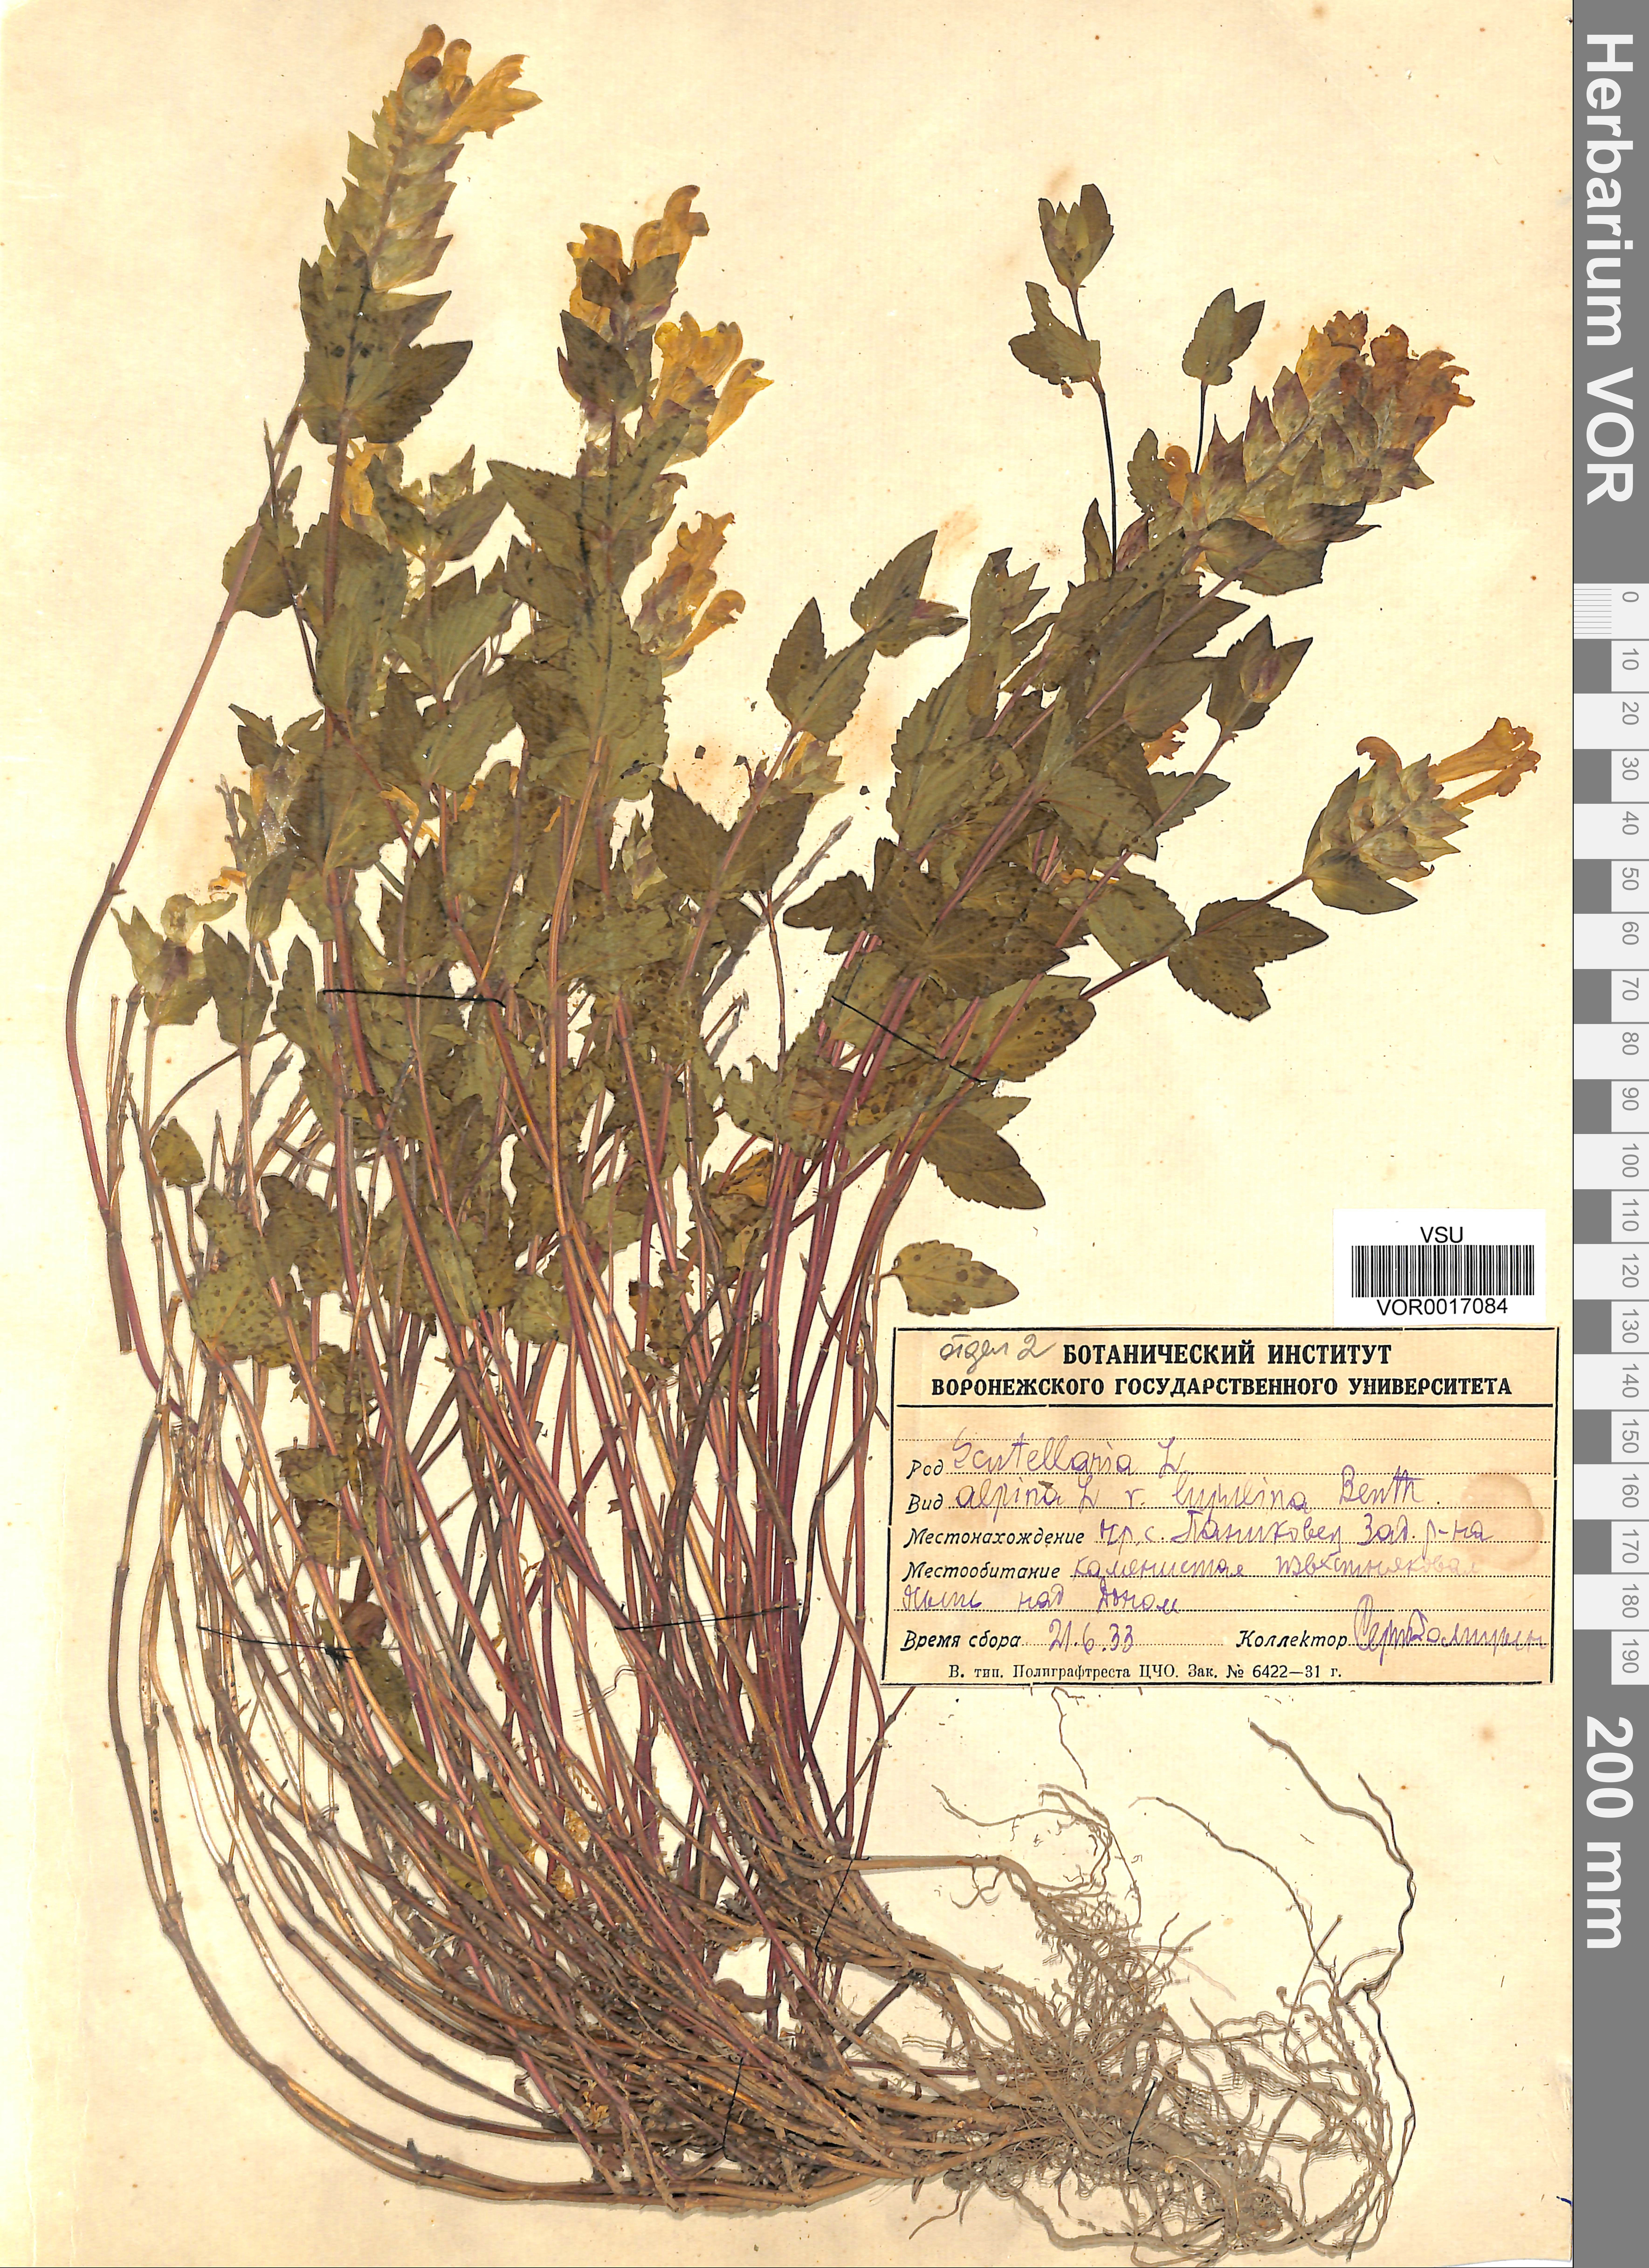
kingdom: Plantae
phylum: Tracheophyta
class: Magnoliopsida
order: Lamiales
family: Lamiaceae
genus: Scutellaria
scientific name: Scutellaria alpina
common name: Alpine scullcap
